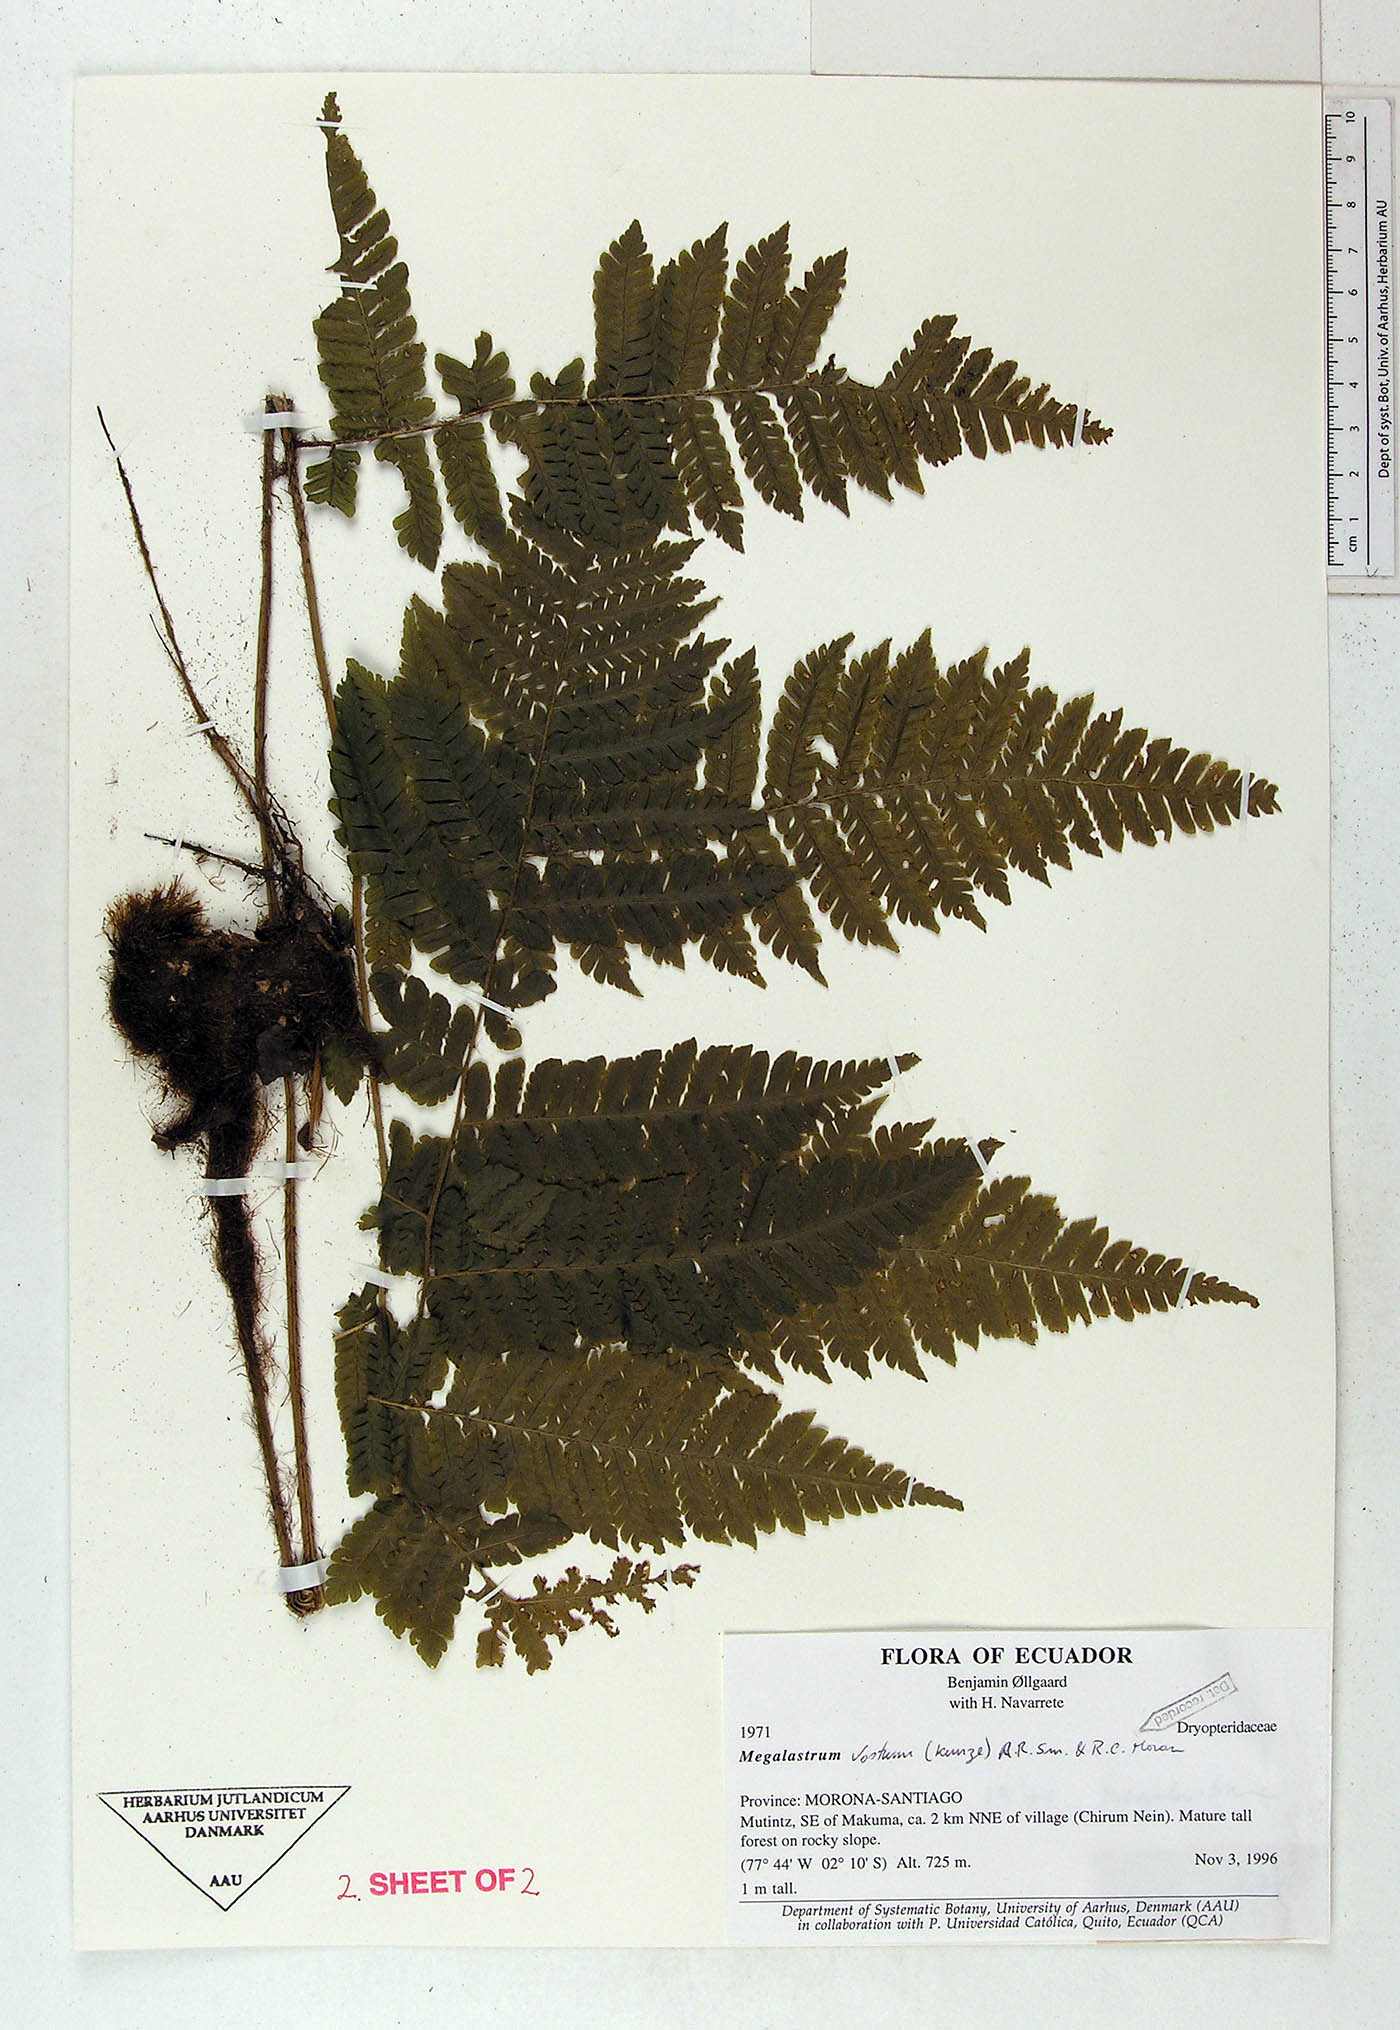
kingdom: Plantae
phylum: Tracheophyta
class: Polypodiopsida
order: Polypodiales
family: Dryopteridaceae
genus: Megalastrum
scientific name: Megalastrum praetermissum
